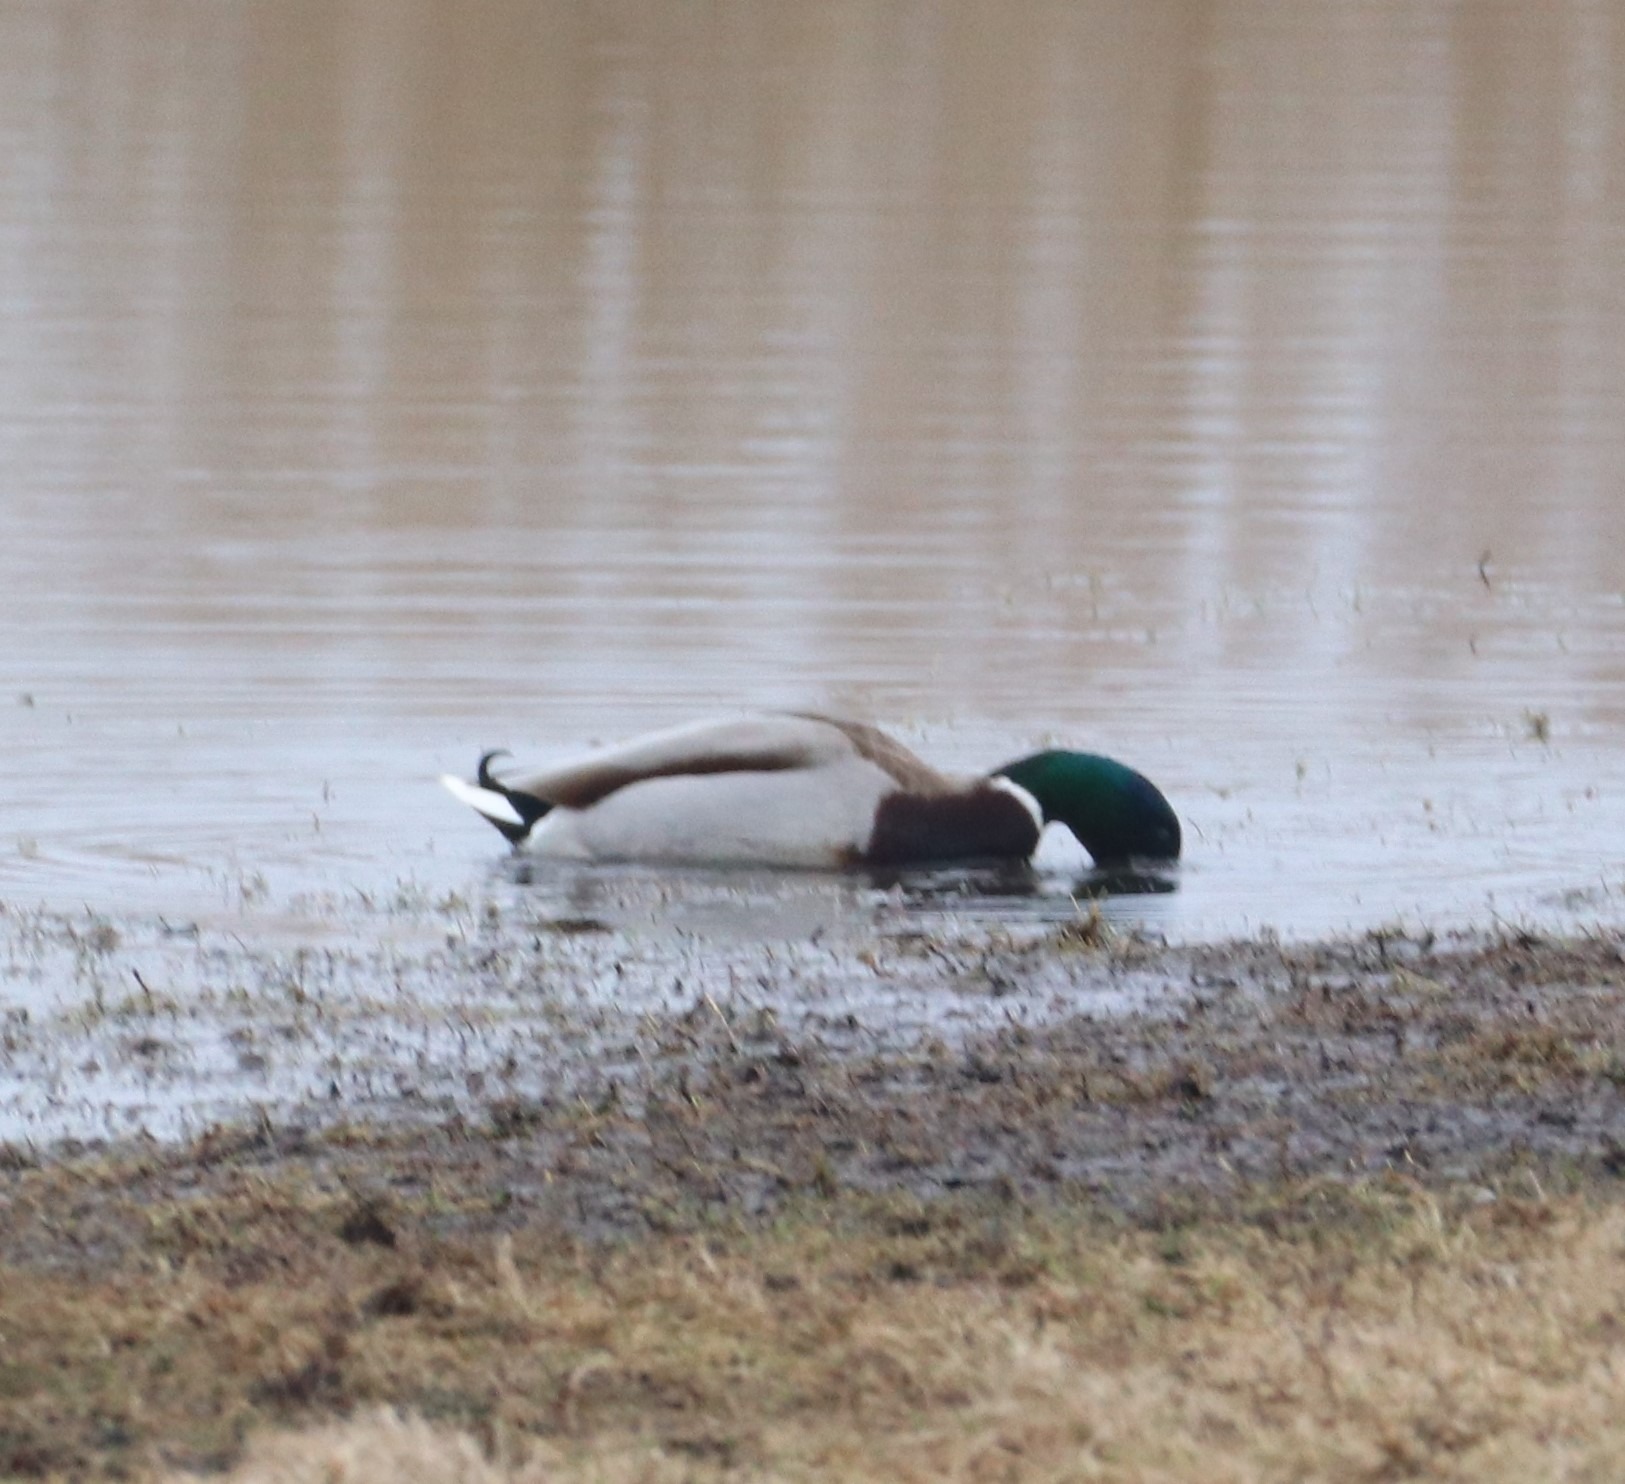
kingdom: Animalia
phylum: Chordata
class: Aves
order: Anseriformes
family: Anatidae
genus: Anas
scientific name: Anas platyrhynchos
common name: Gråand
